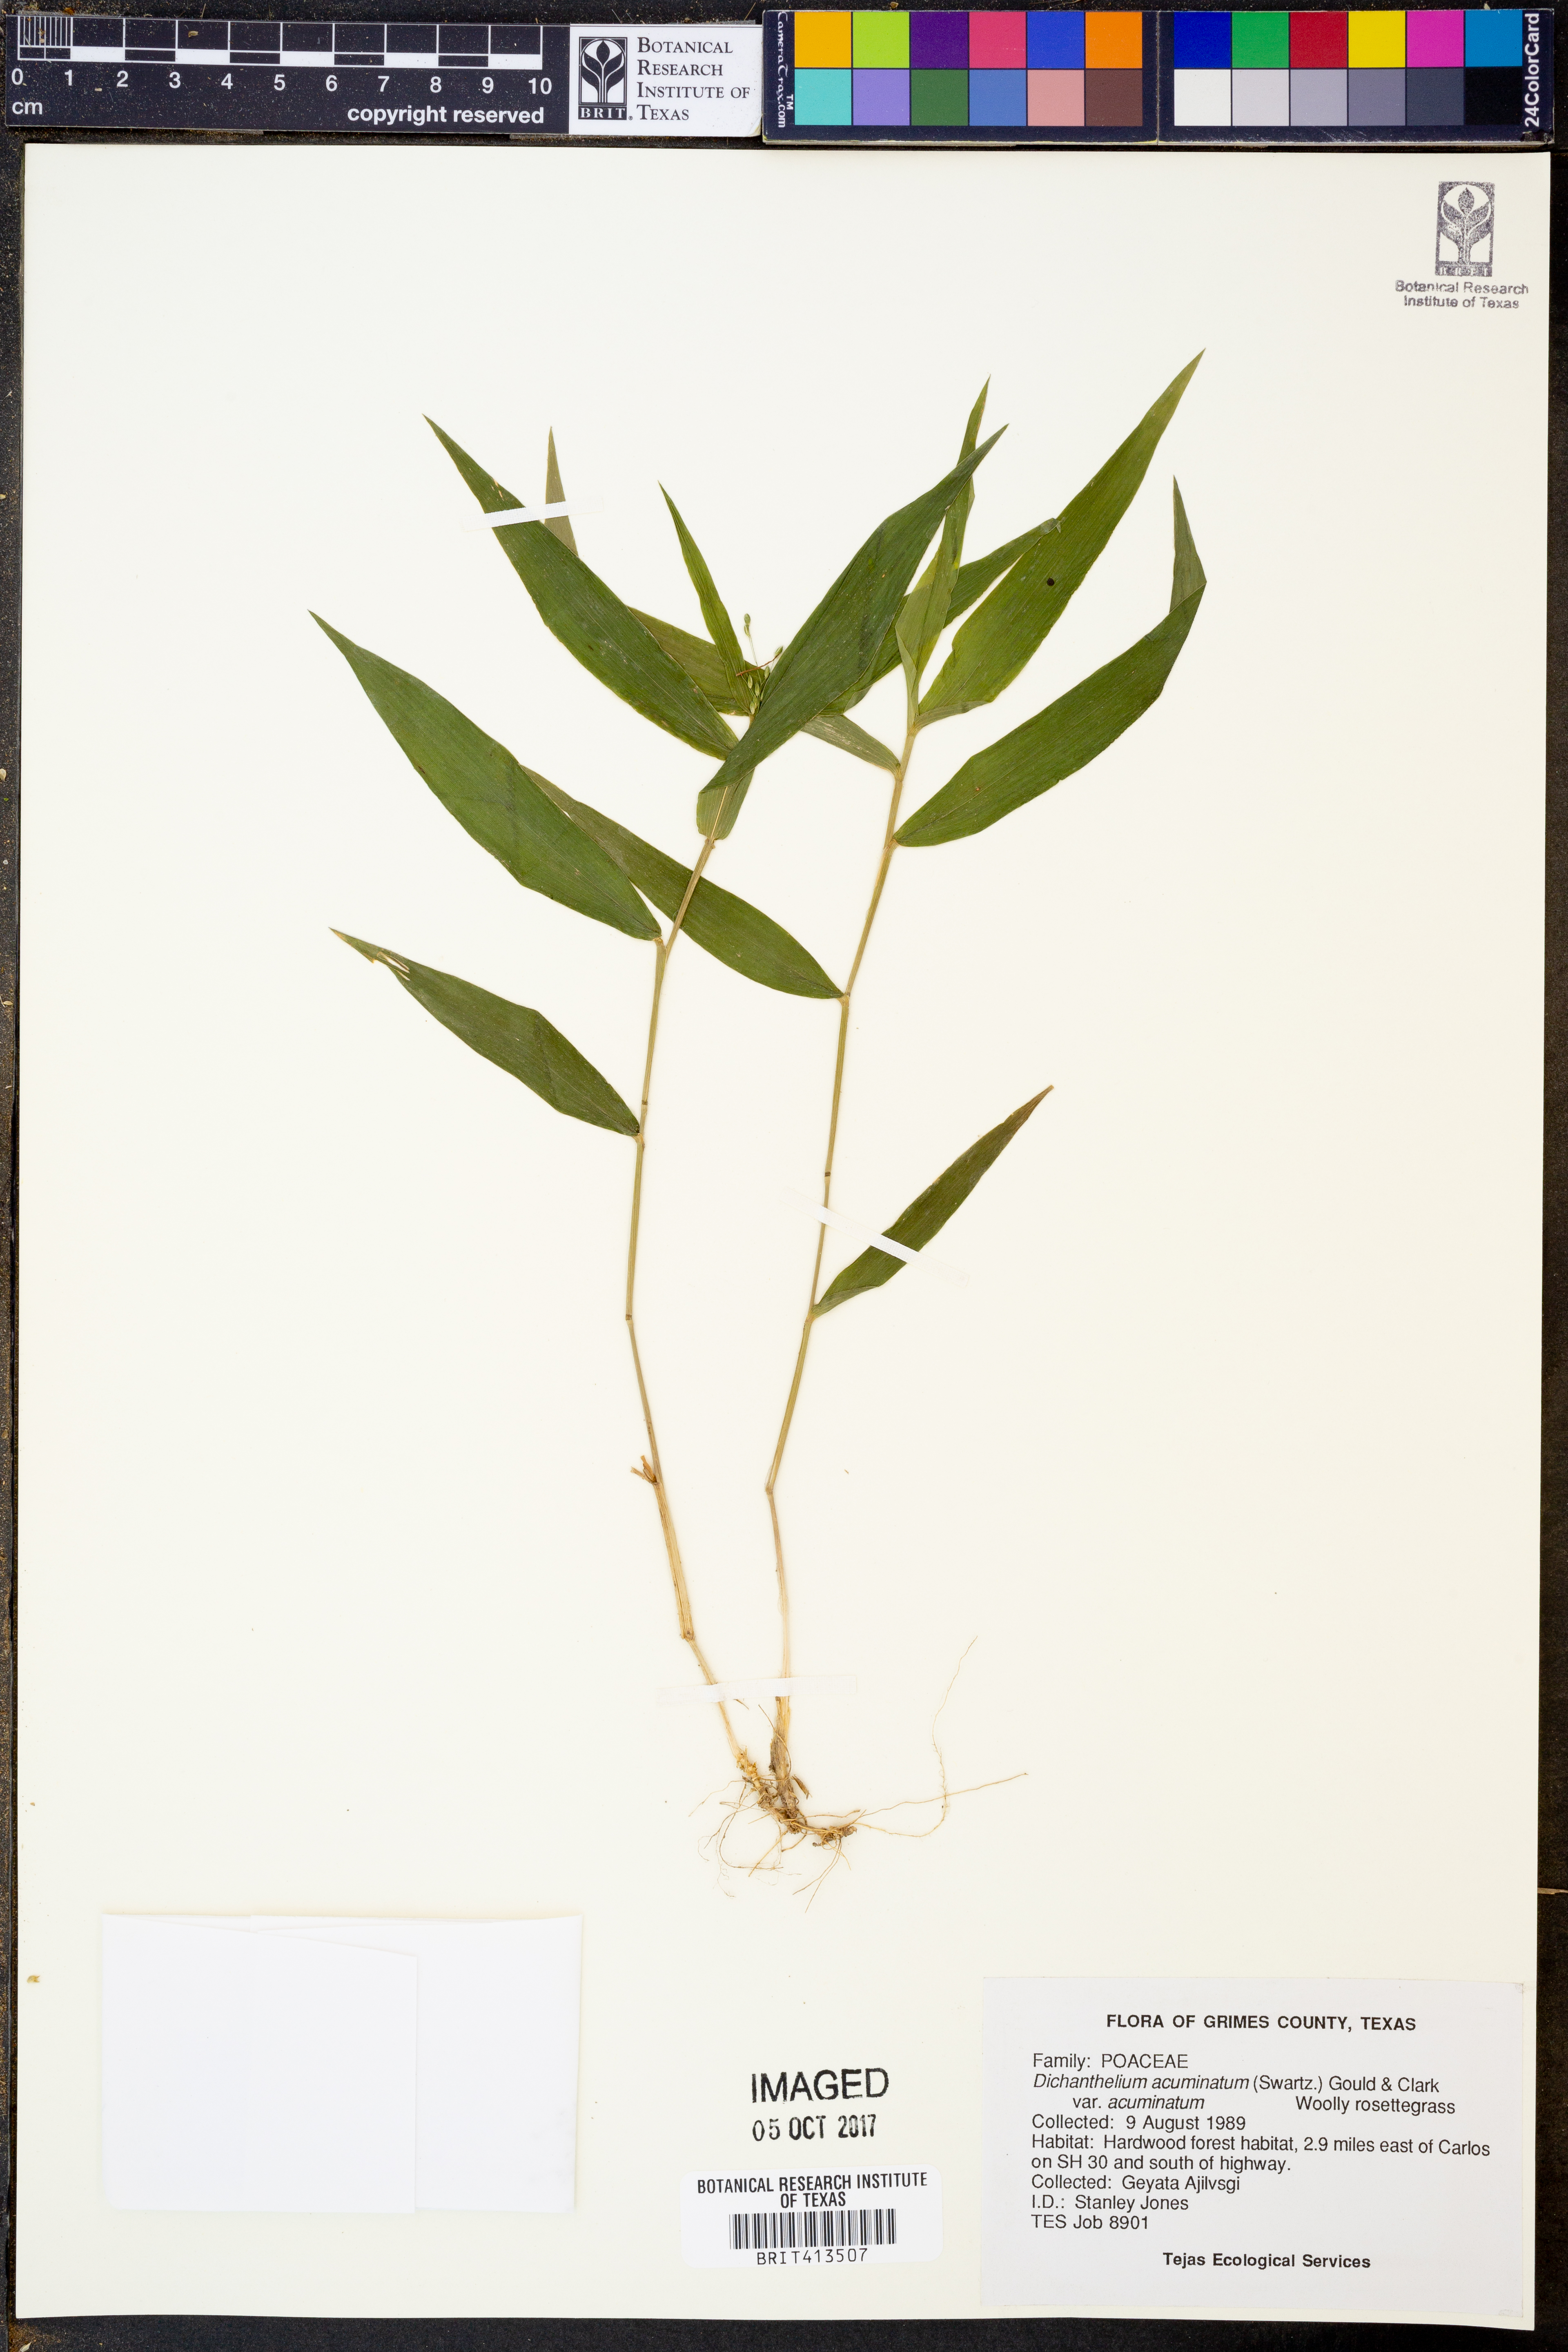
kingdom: Plantae
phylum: Tracheophyta
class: Liliopsida
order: Poales
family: Poaceae
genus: Dichanthelium
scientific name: Dichanthelium acuminatum
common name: Hairy panic grass
